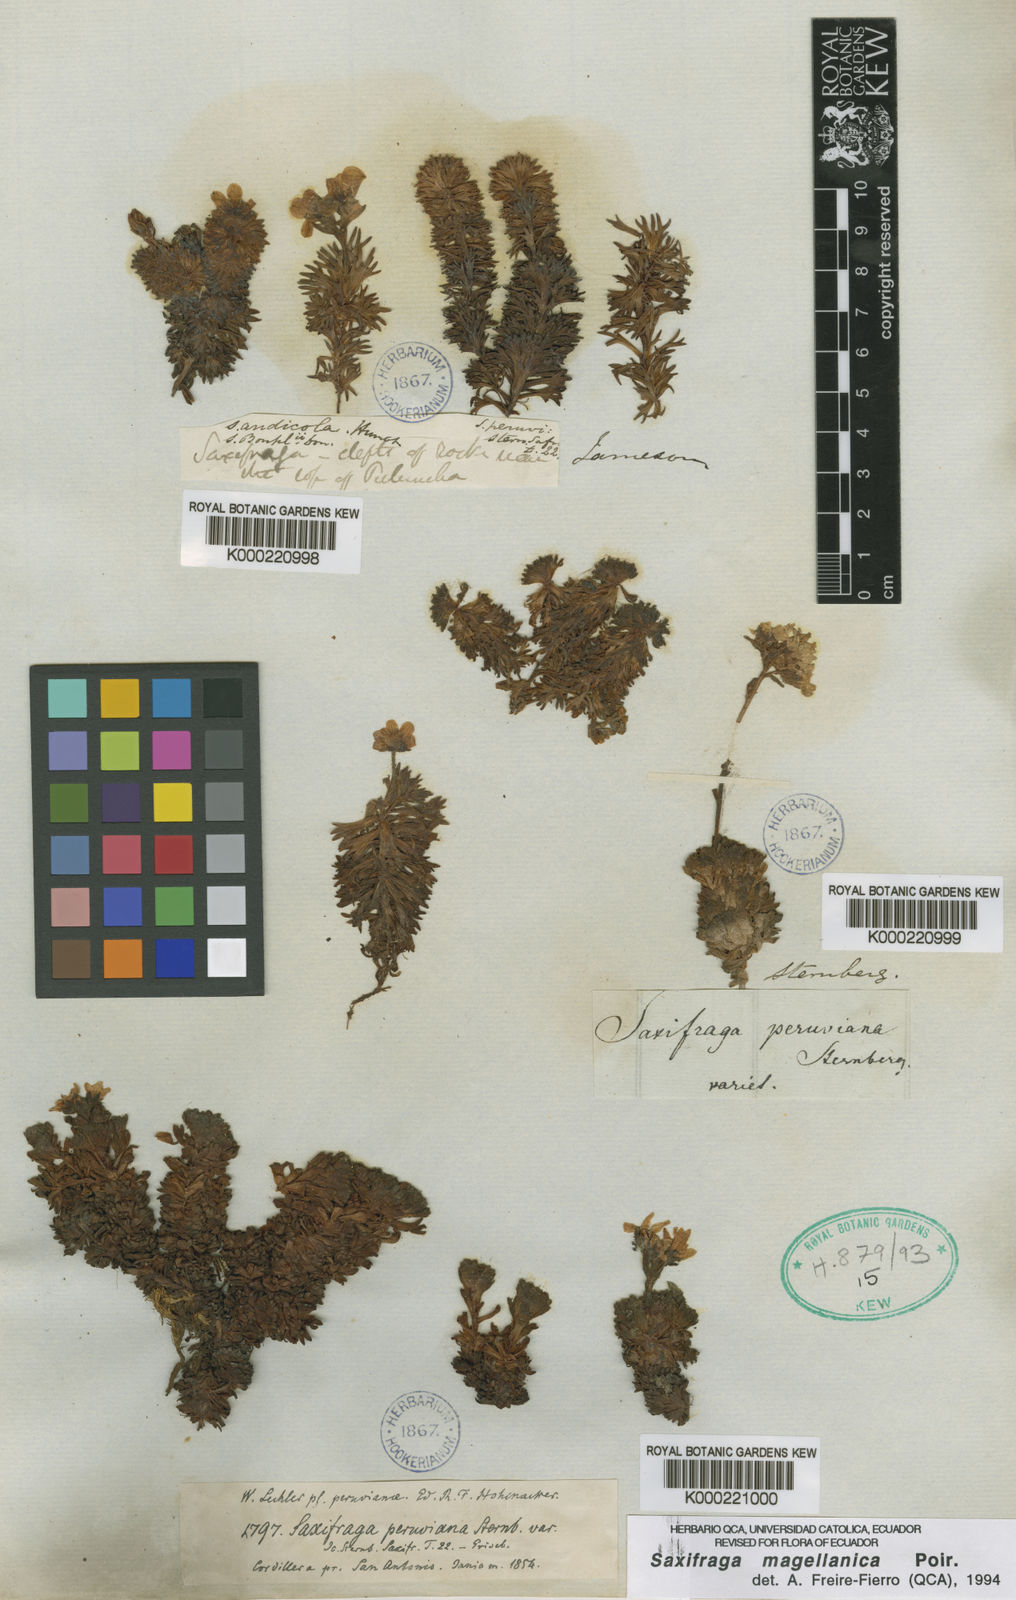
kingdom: Plantae
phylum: Tracheophyta
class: Magnoliopsida
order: Saxifragales
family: Saxifragaceae
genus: Saxifraga
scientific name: Saxifraga magellanica
